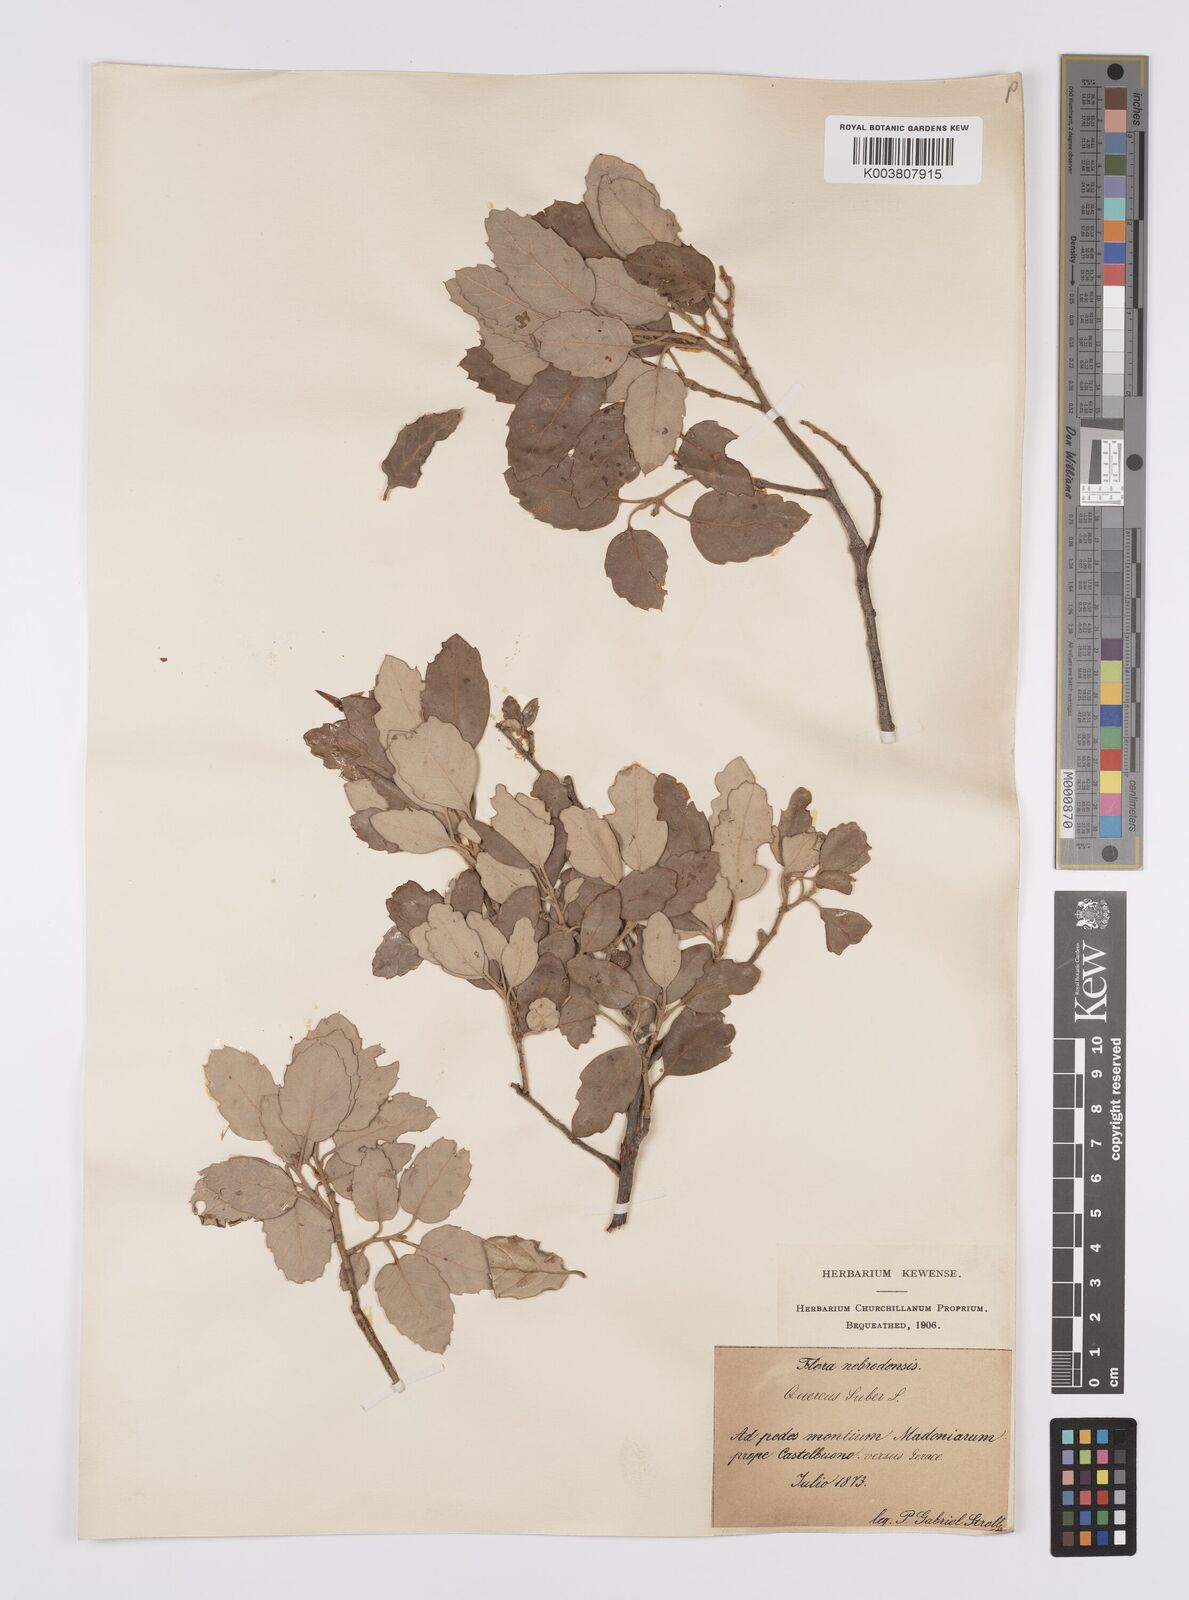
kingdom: Plantae
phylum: Tracheophyta
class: Magnoliopsida
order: Fagales
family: Fagaceae
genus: Quercus
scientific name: Quercus suber
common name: Cork oak
